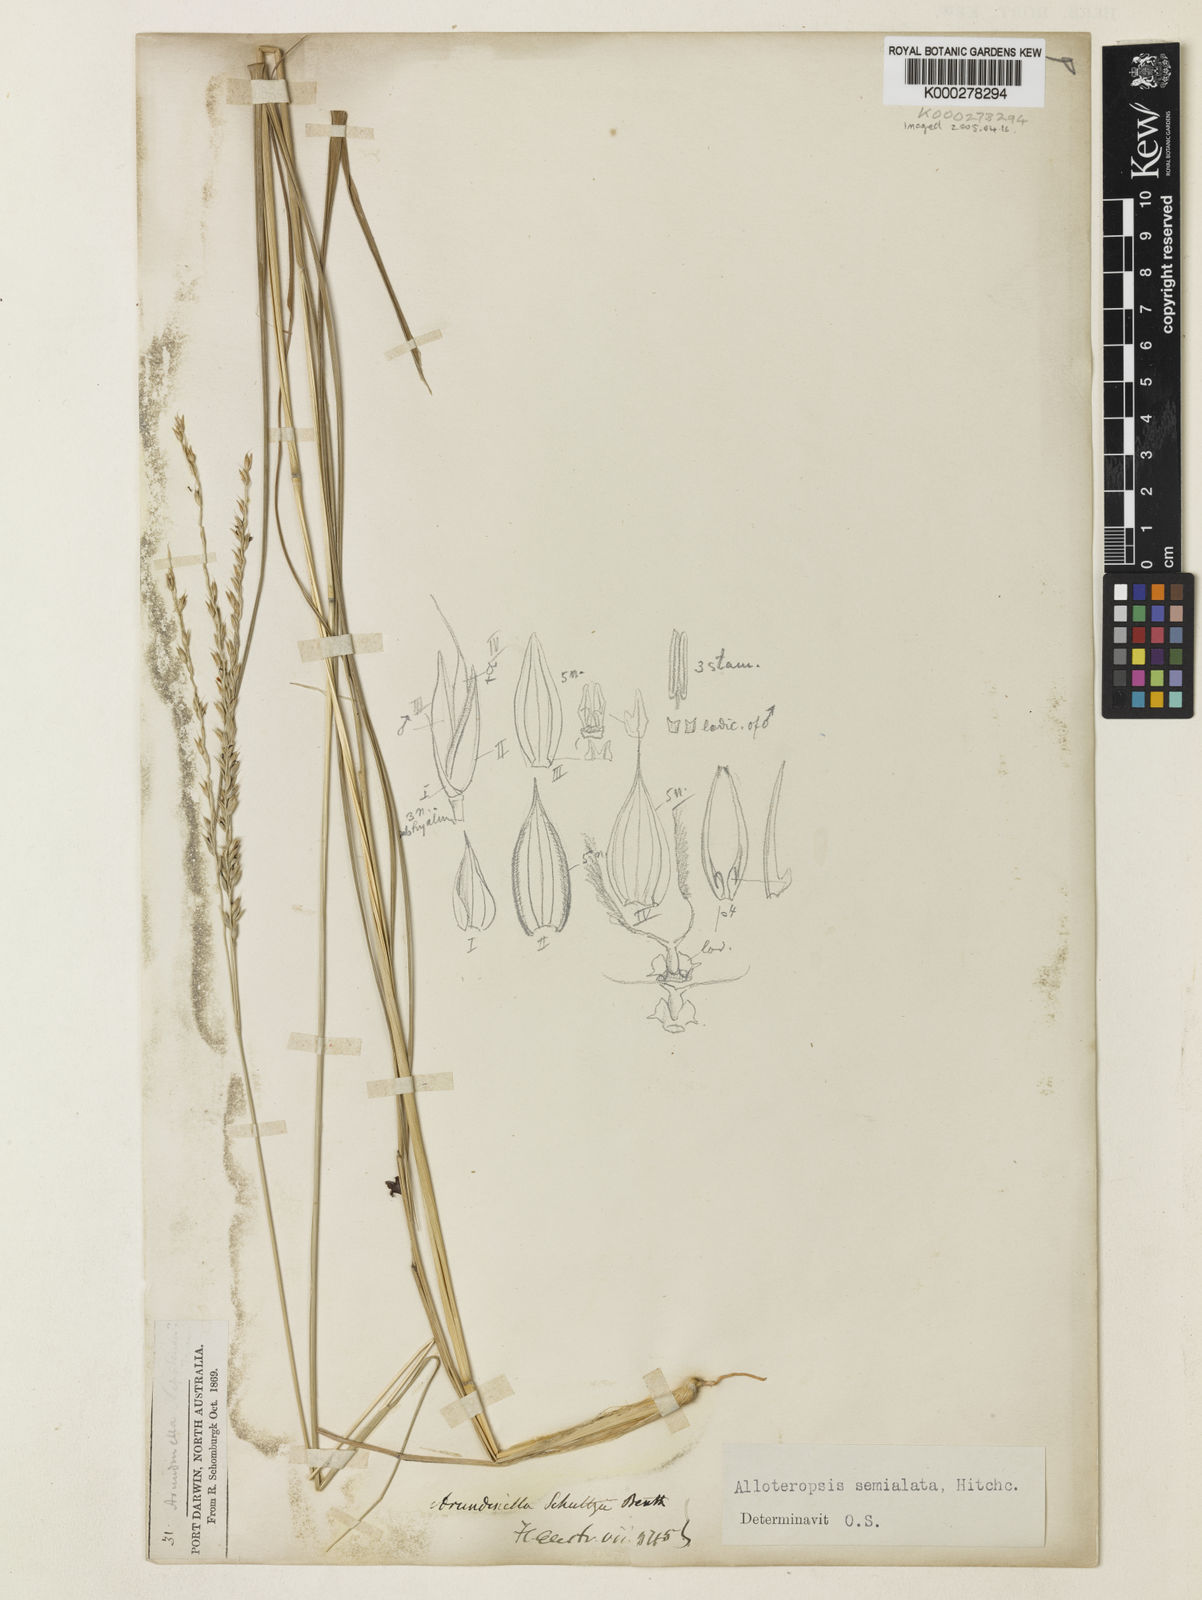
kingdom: Plantae
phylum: Tracheophyta
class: Liliopsida
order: Poales
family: Poaceae
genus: Alloteropsis
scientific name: Alloteropsis semialata
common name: Cockatoo grass
